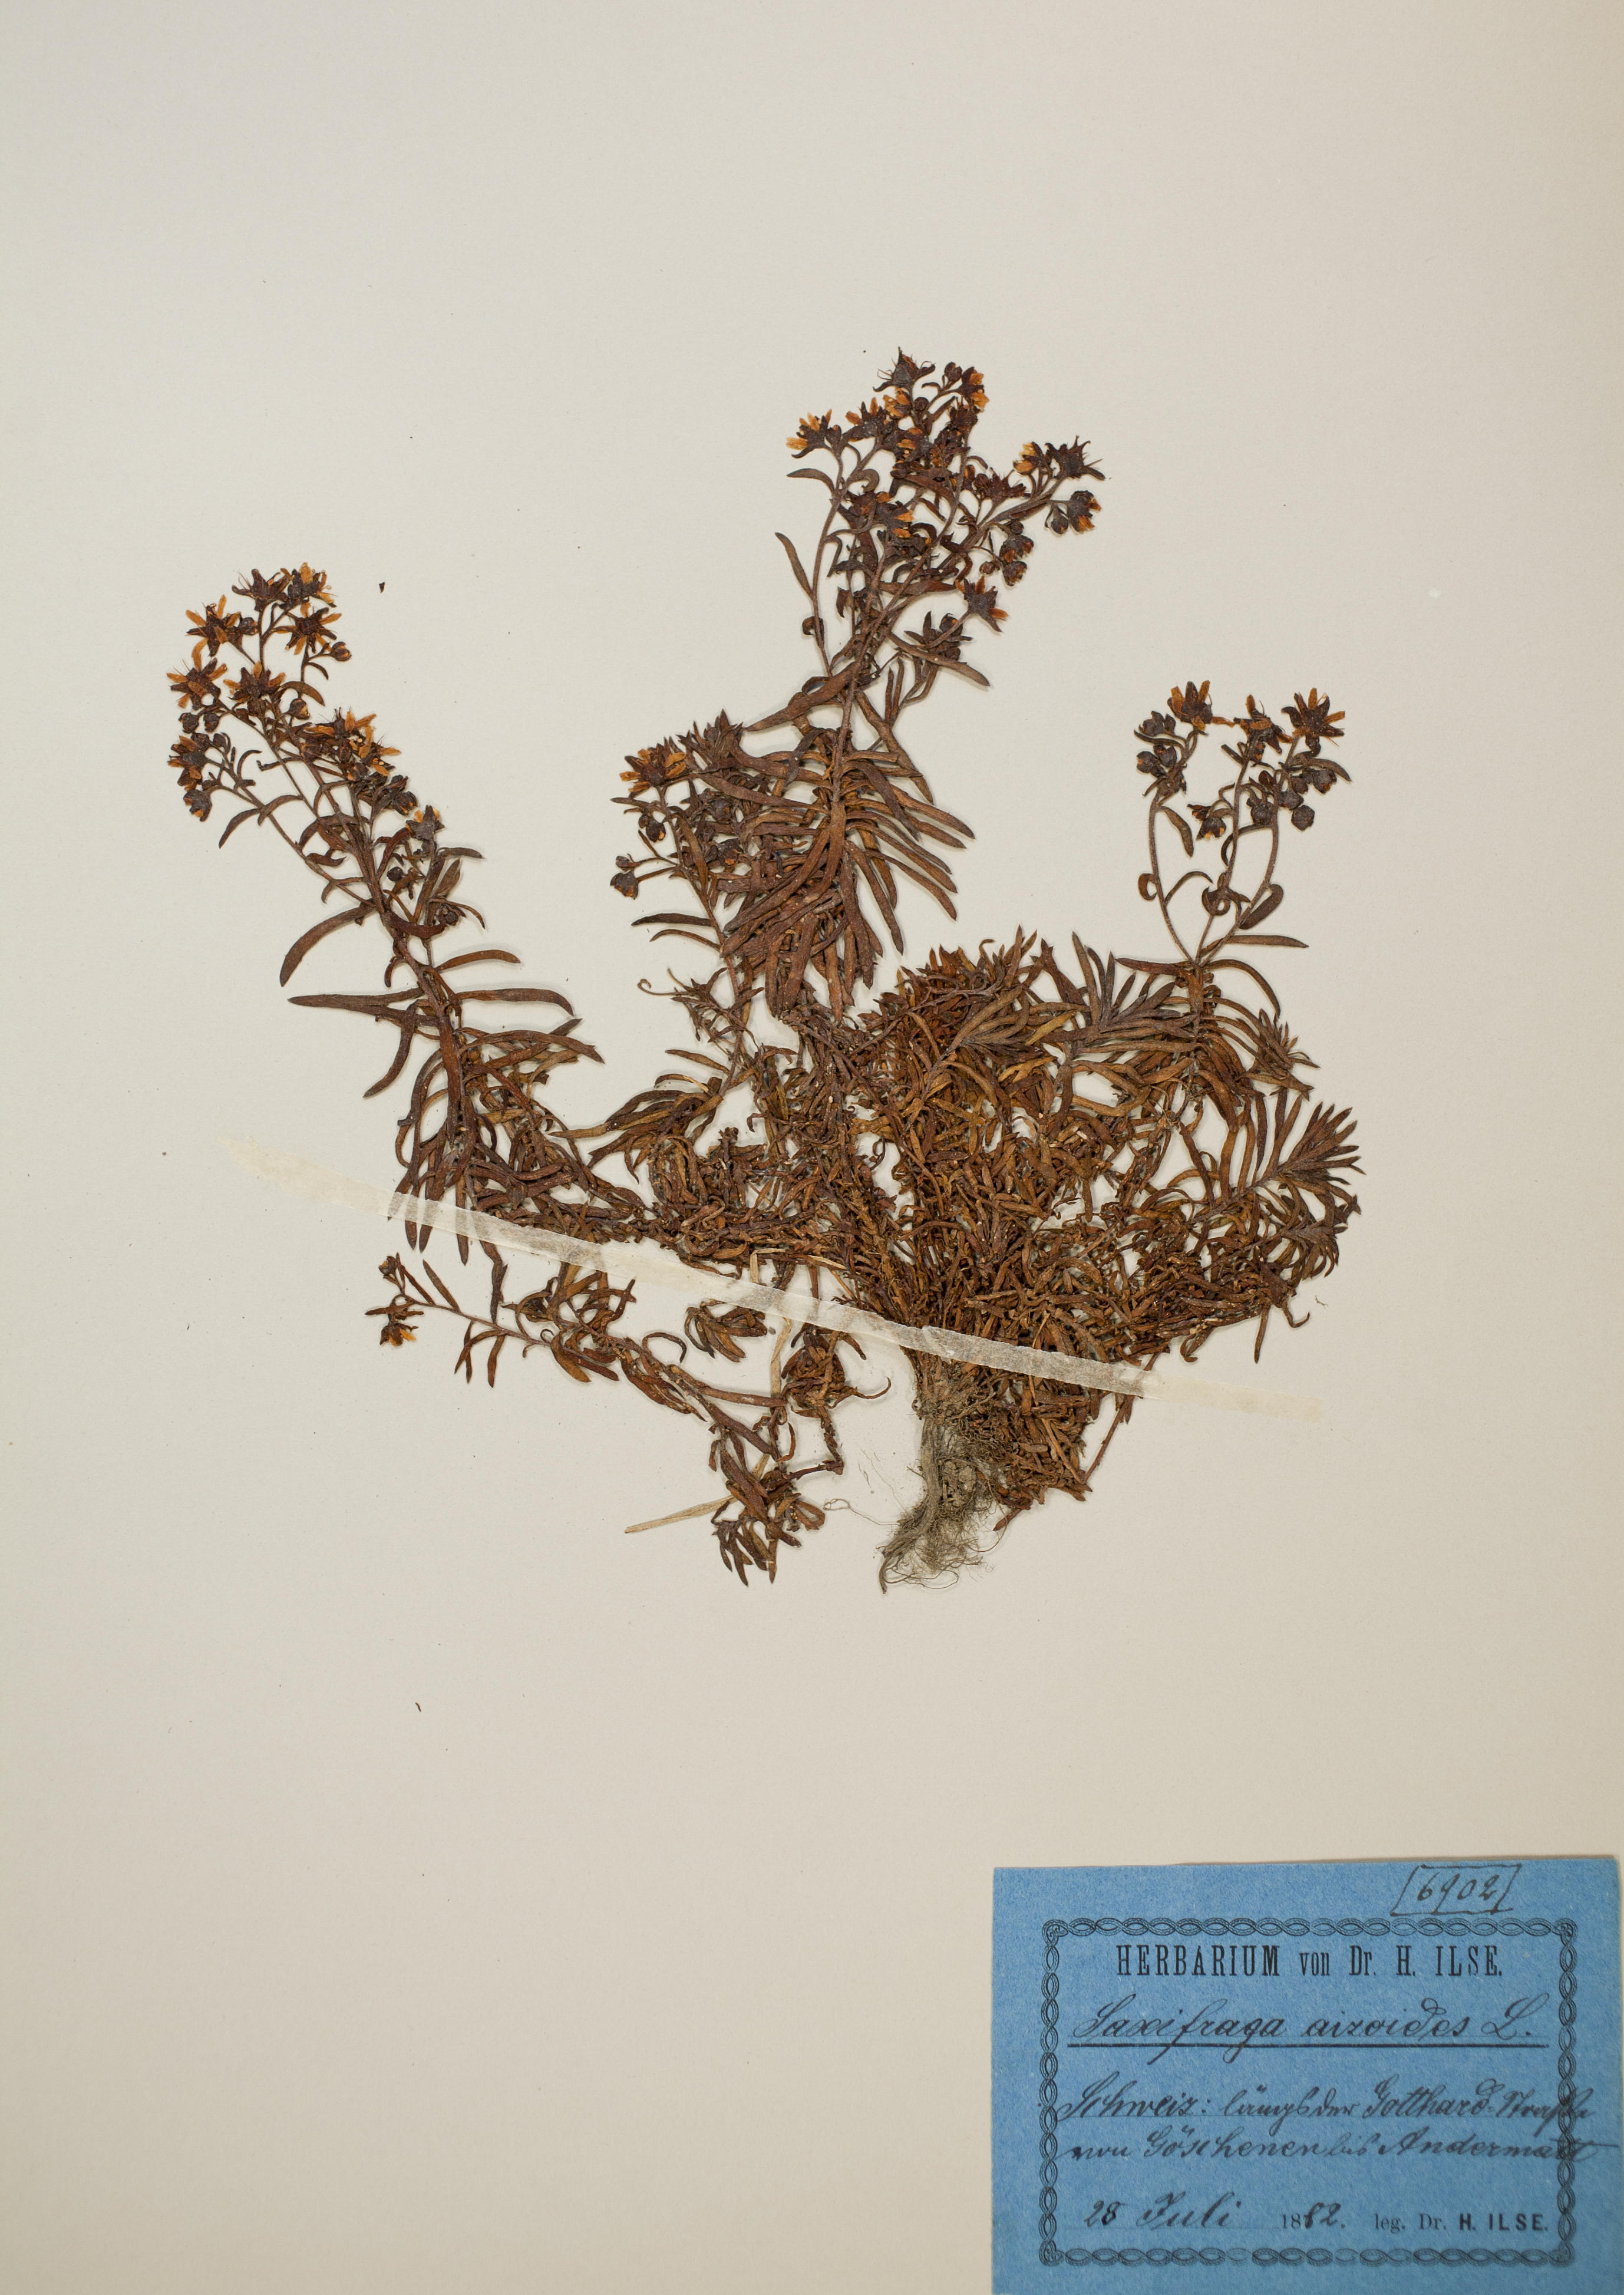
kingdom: Plantae
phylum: Tracheophyta
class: Magnoliopsida
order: Saxifragales
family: Saxifragaceae
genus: Saxifraga
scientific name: Saxifraga aizoides
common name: Yellow mountain saxifrage
